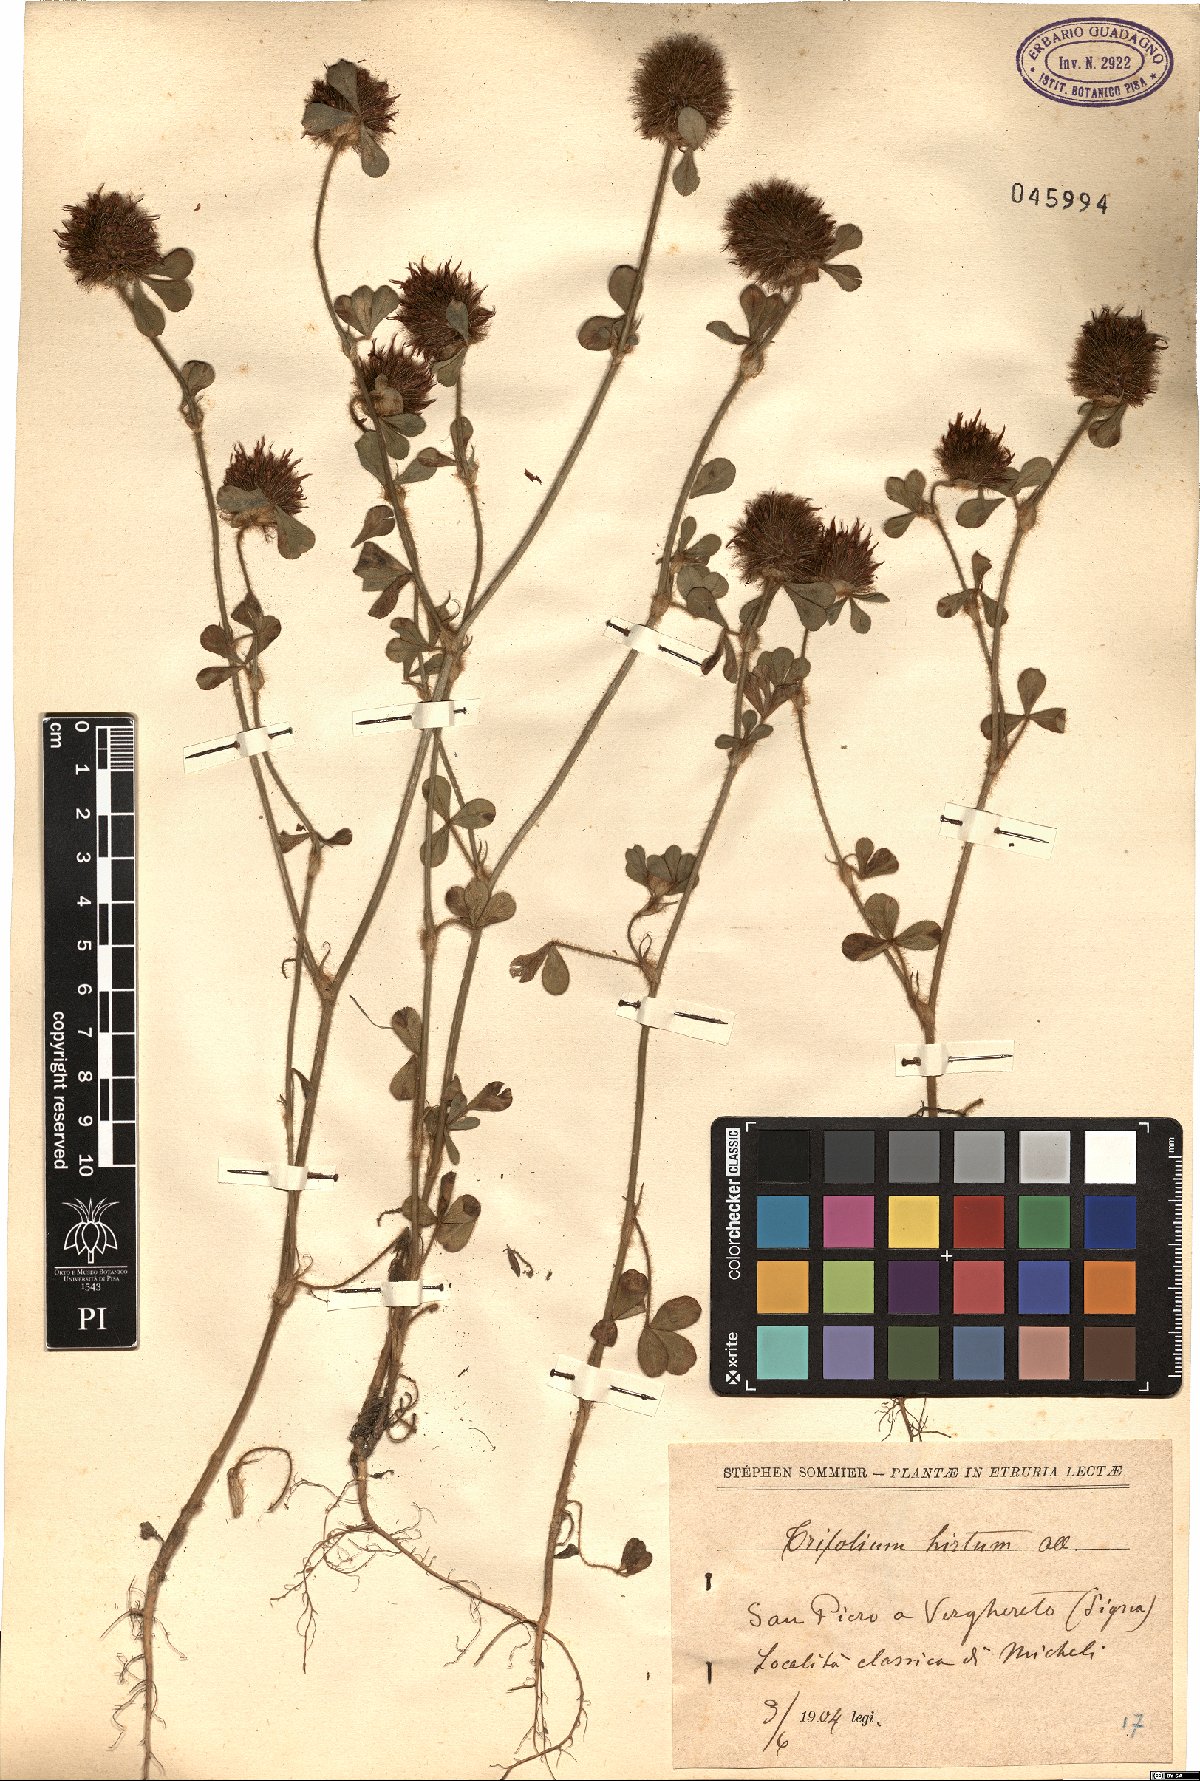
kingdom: Plantae
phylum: Tracheophyta
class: Magnoliopsida
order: Fabales
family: Fabaceae
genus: Trifolium
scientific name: Trifolium hirtum
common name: Rose clover
